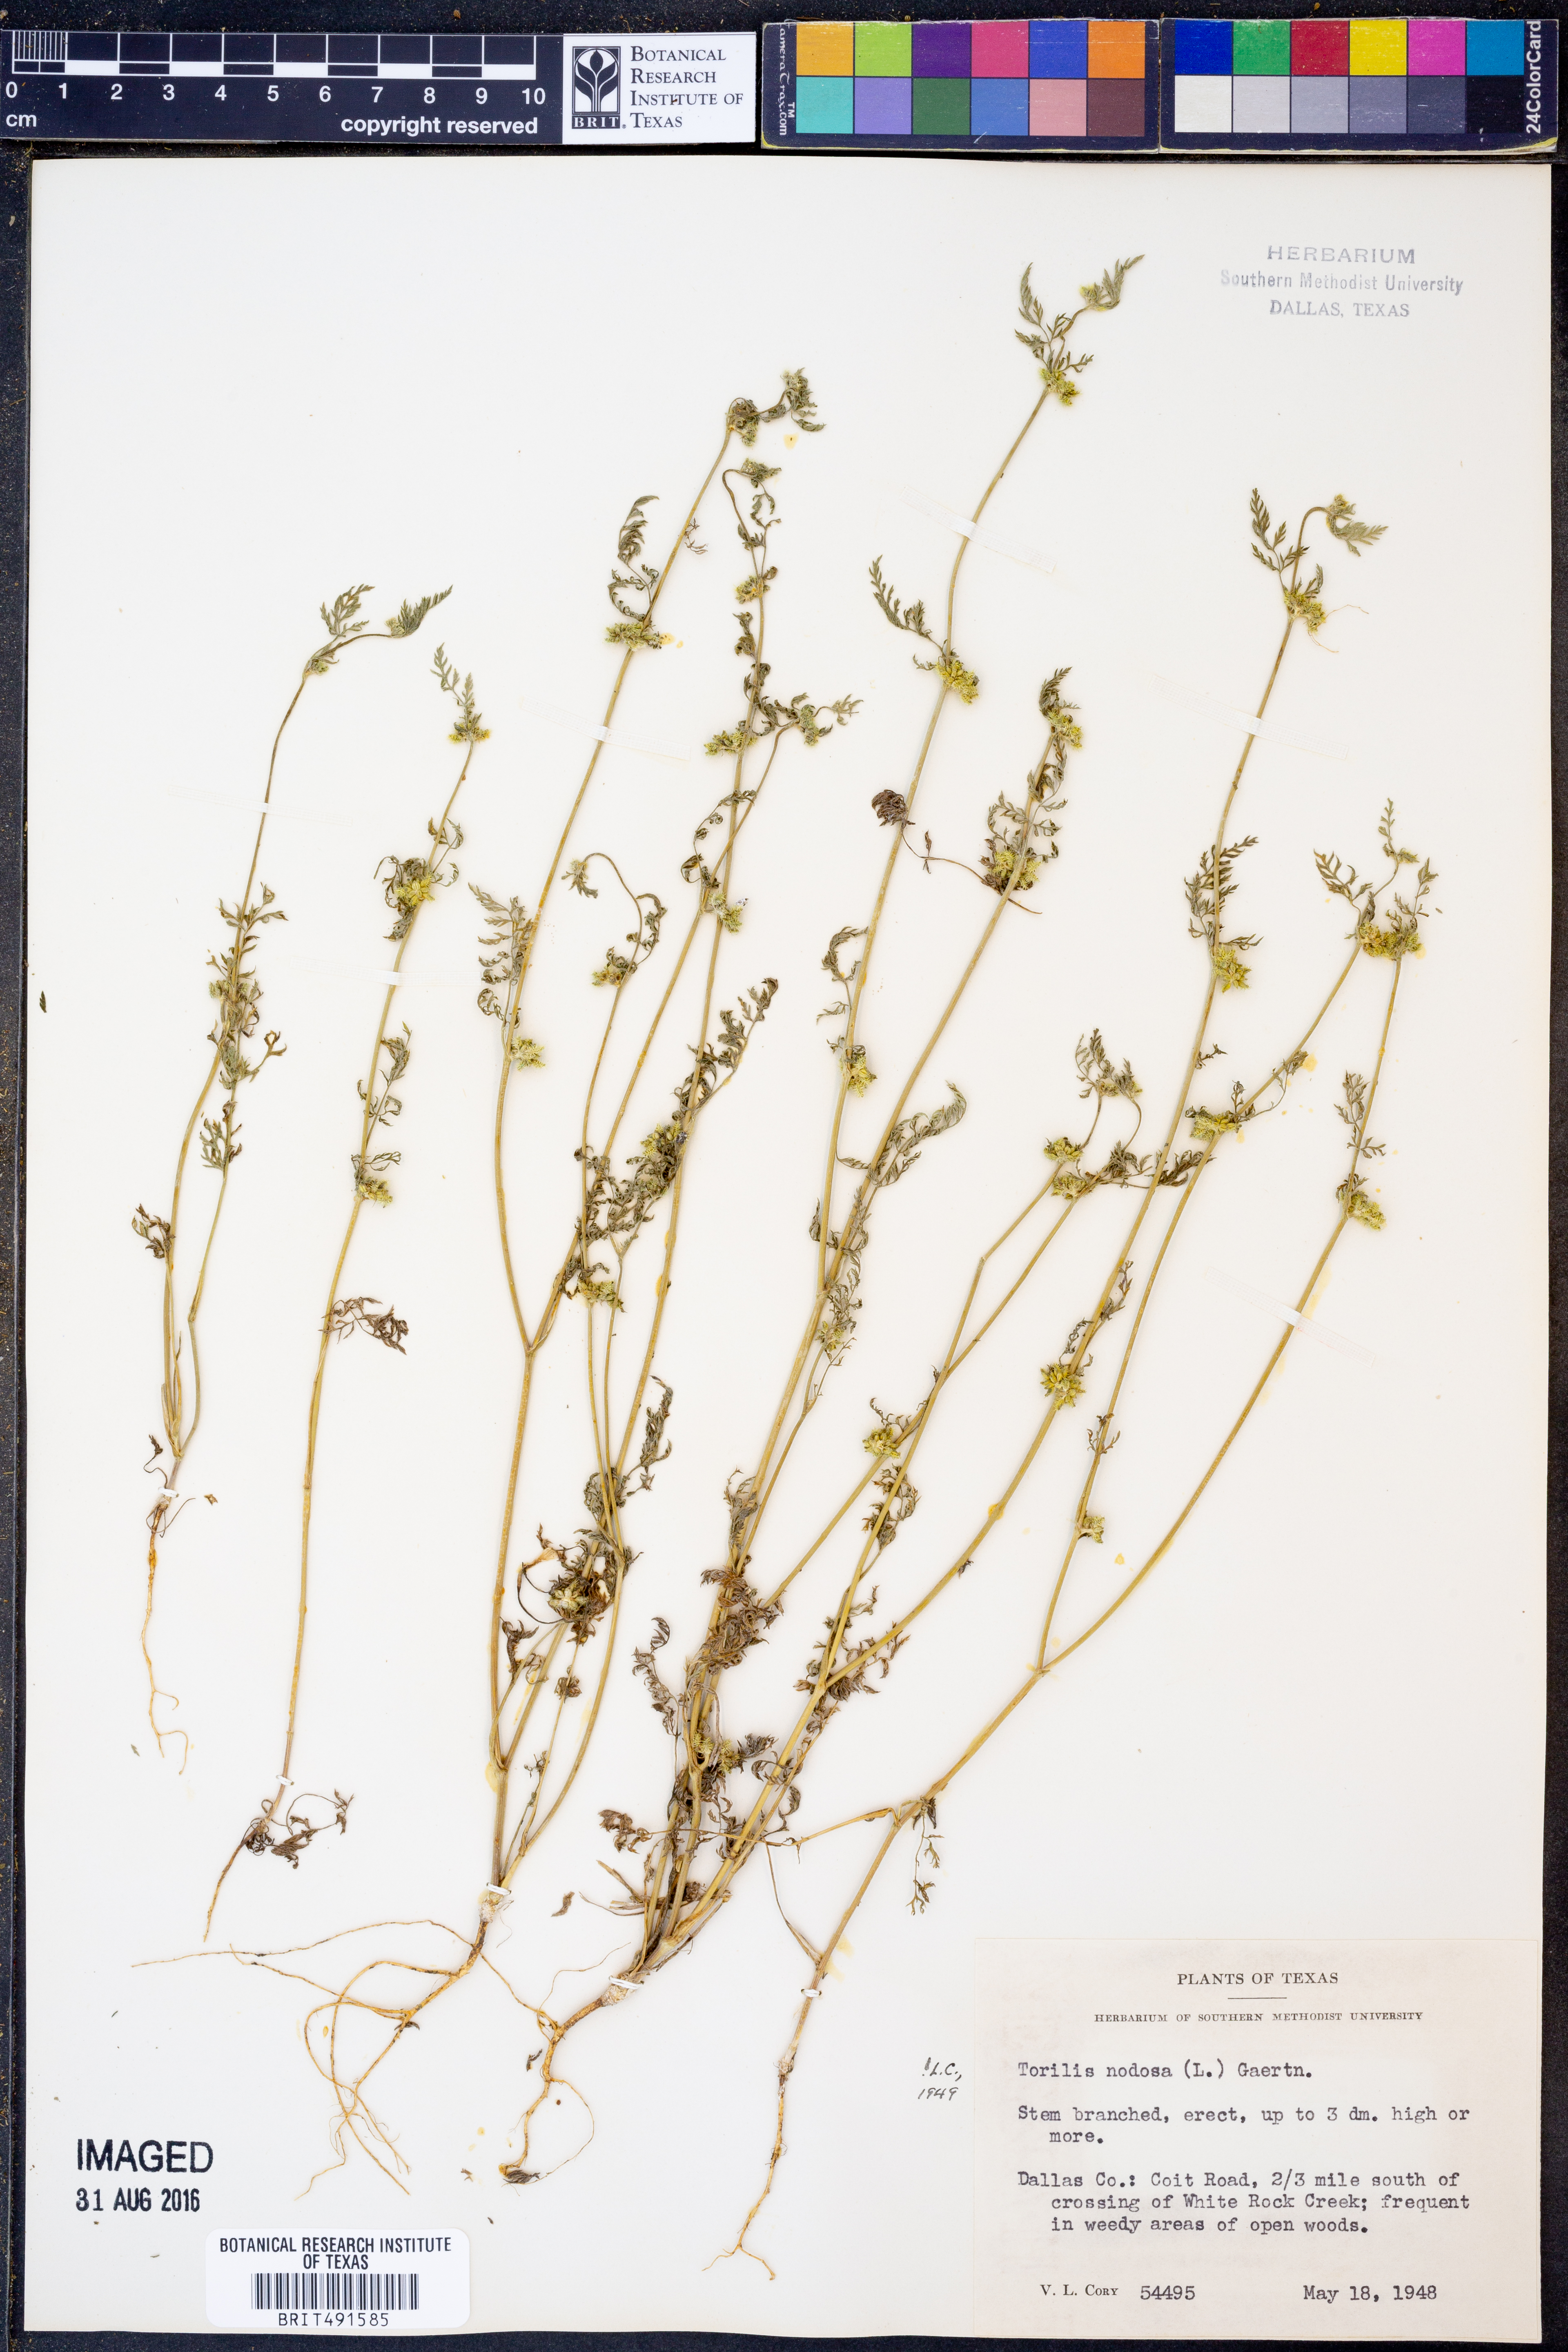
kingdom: Plantae
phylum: Tracheophyta
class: Magnoliopsida
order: Apiales
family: Apiaceae
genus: Torilis
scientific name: Torilis nodosa
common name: Knotted hedge-parsley
